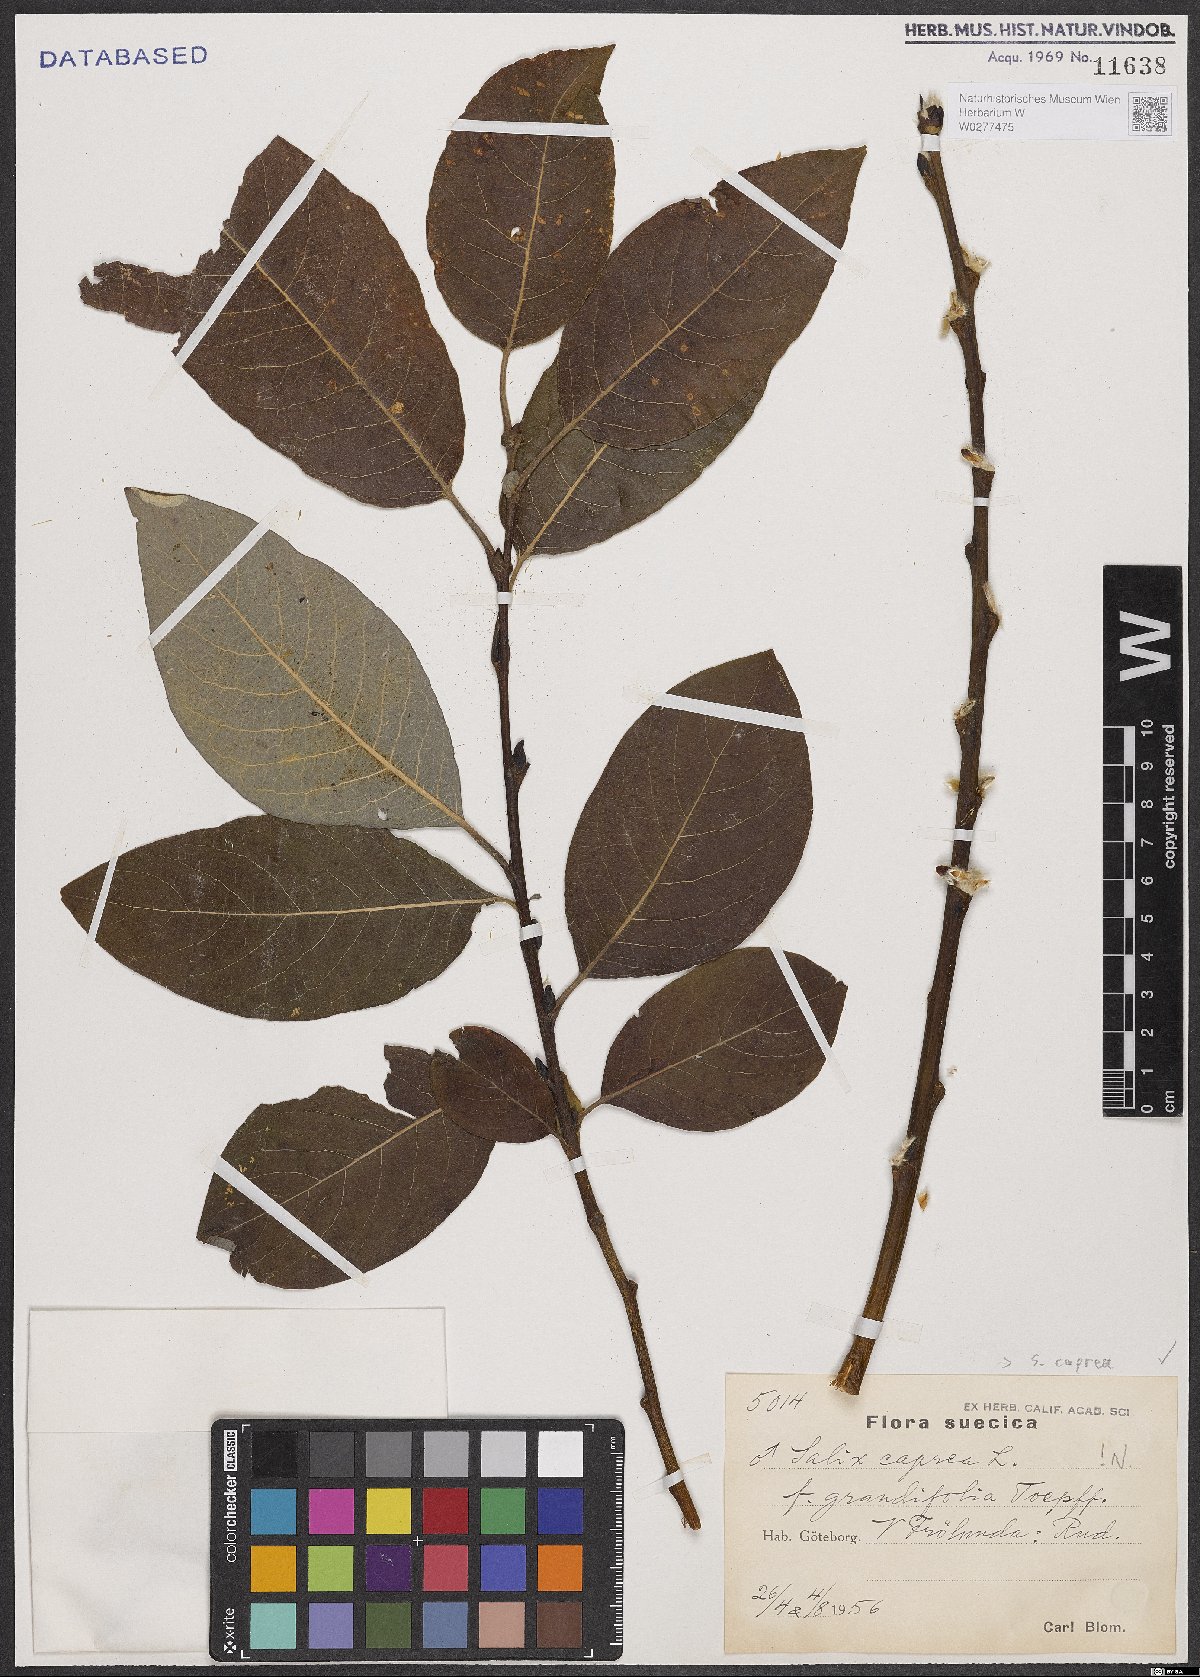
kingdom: Plantae
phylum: Tracheophyta
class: Magnoliopsida
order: Malpighiales
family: Salicaceae
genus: Salix
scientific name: Salix caprea
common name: Goat willow
